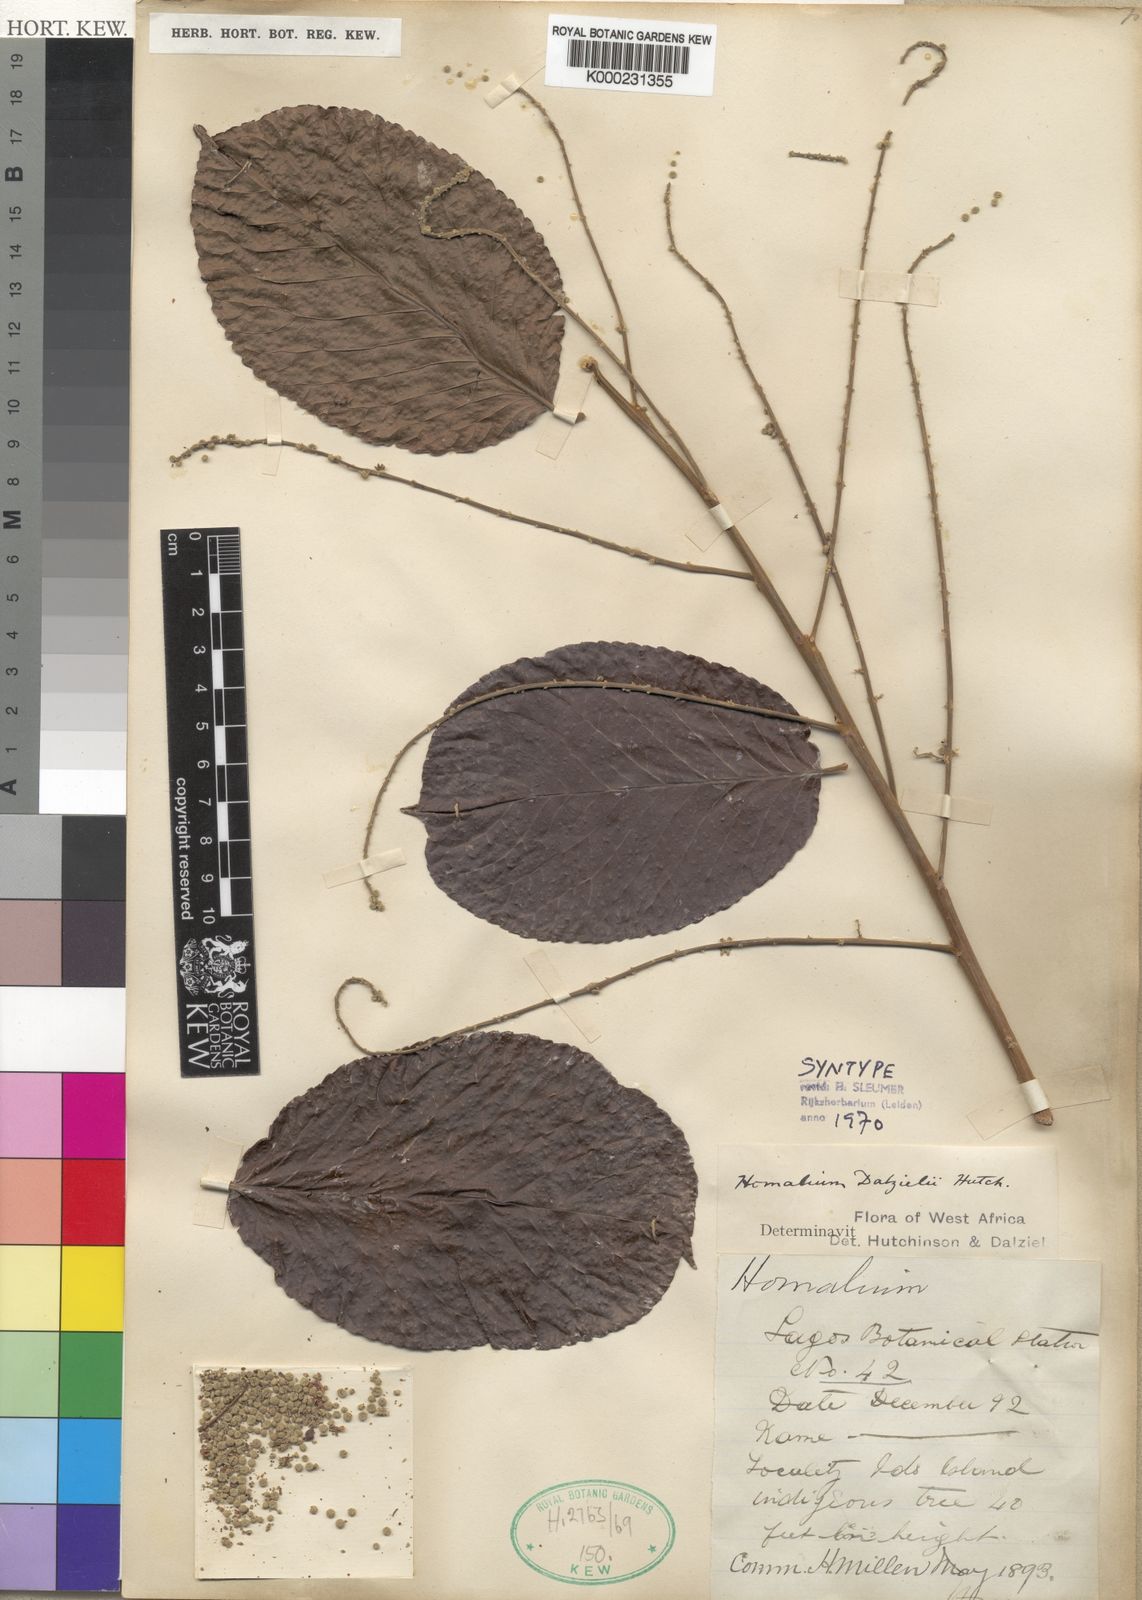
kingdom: Plantae
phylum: Tracheophyta
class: Magnoliopsida
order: Malpighiales
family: Salicaceae
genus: Homalium
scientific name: Homalium dalzielii
